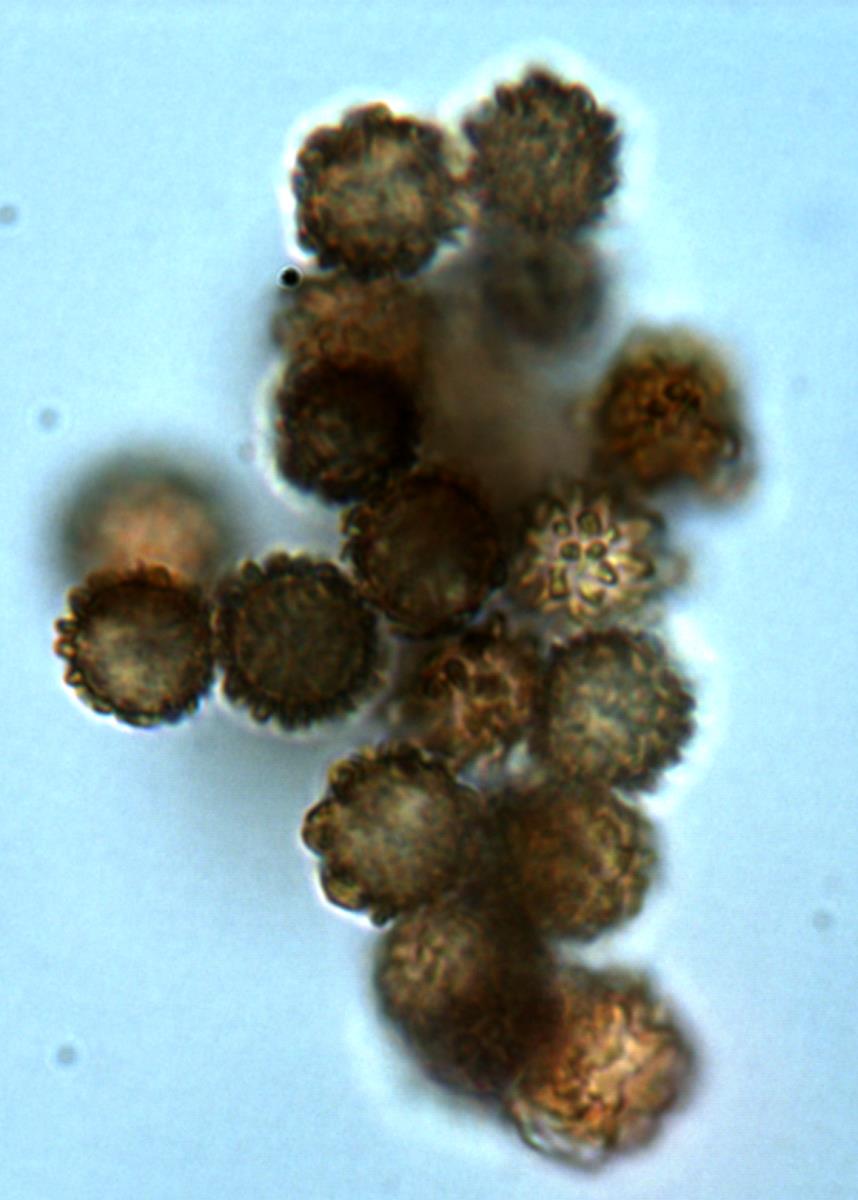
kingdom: Fungi
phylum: Basidiomycota
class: Agaricomycetes
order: Agaricales
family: Stephanosporaceae
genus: Stephanospora
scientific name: Stephanospora kanuka
